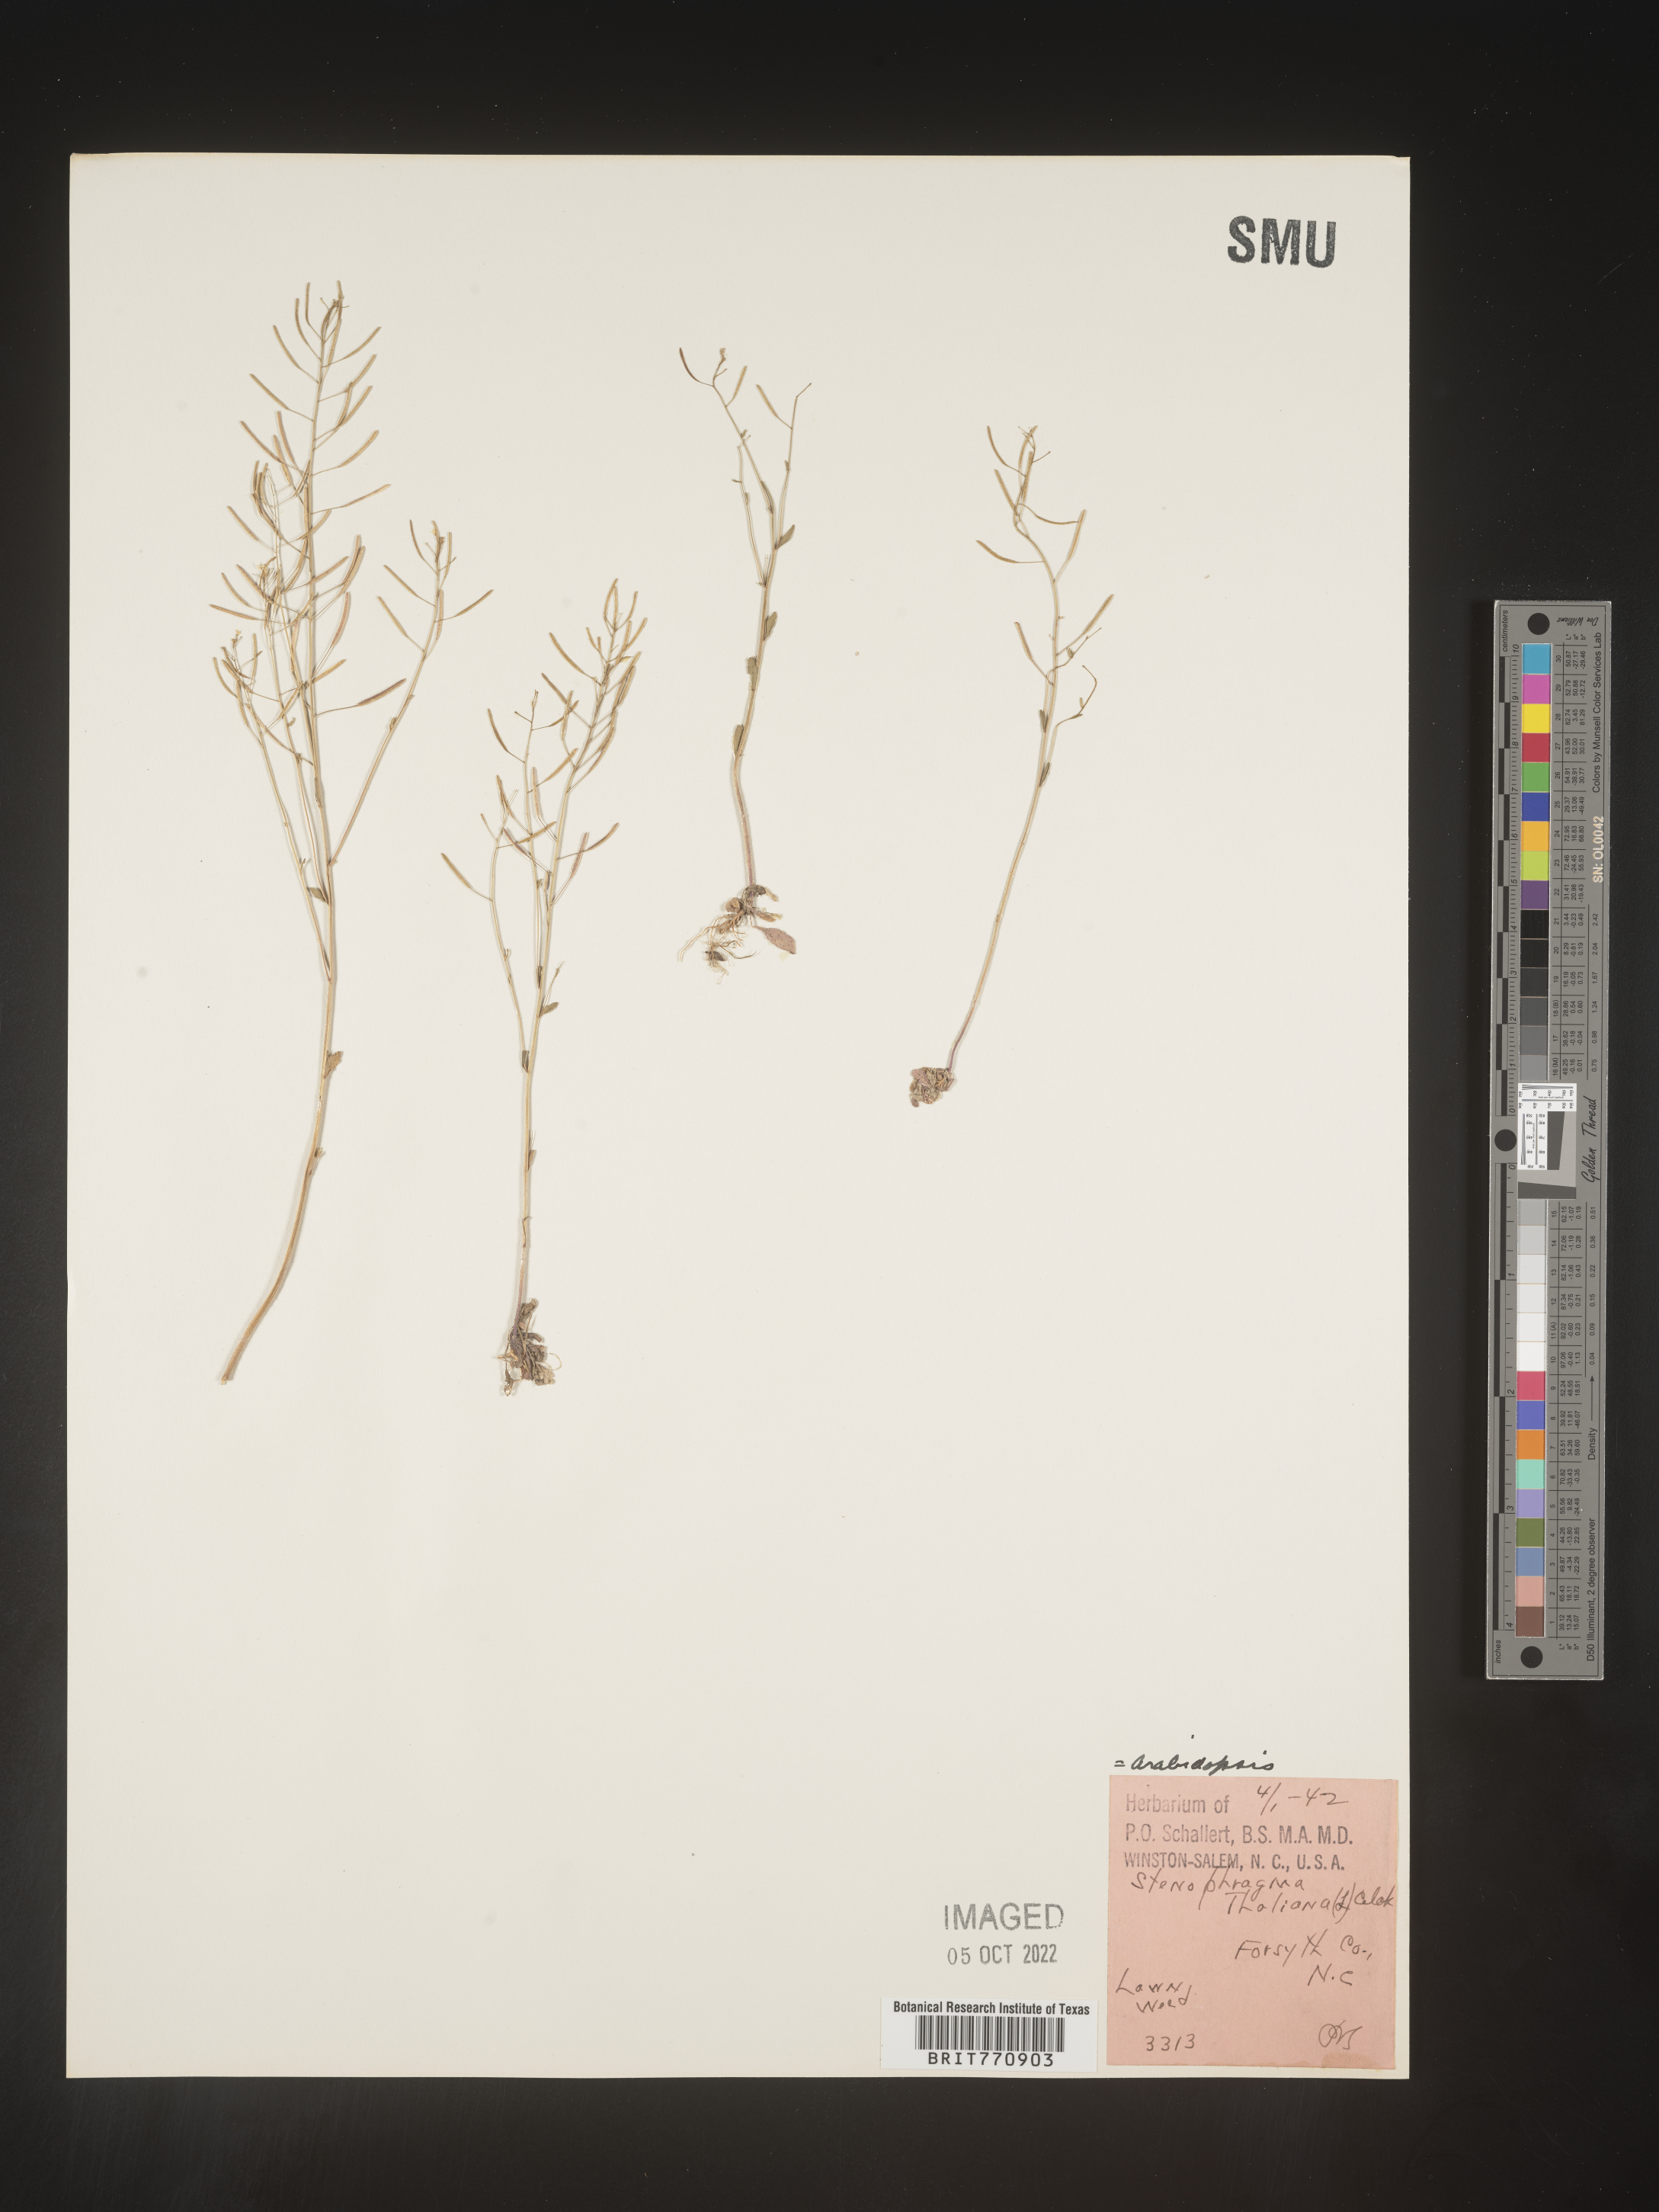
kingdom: Plantae
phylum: Tracheophyta
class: Magnoliopsida
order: Brassicales
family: Brassicaceae
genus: Arabidopsis
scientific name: Arabidopsis thaliana
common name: Thale cress
